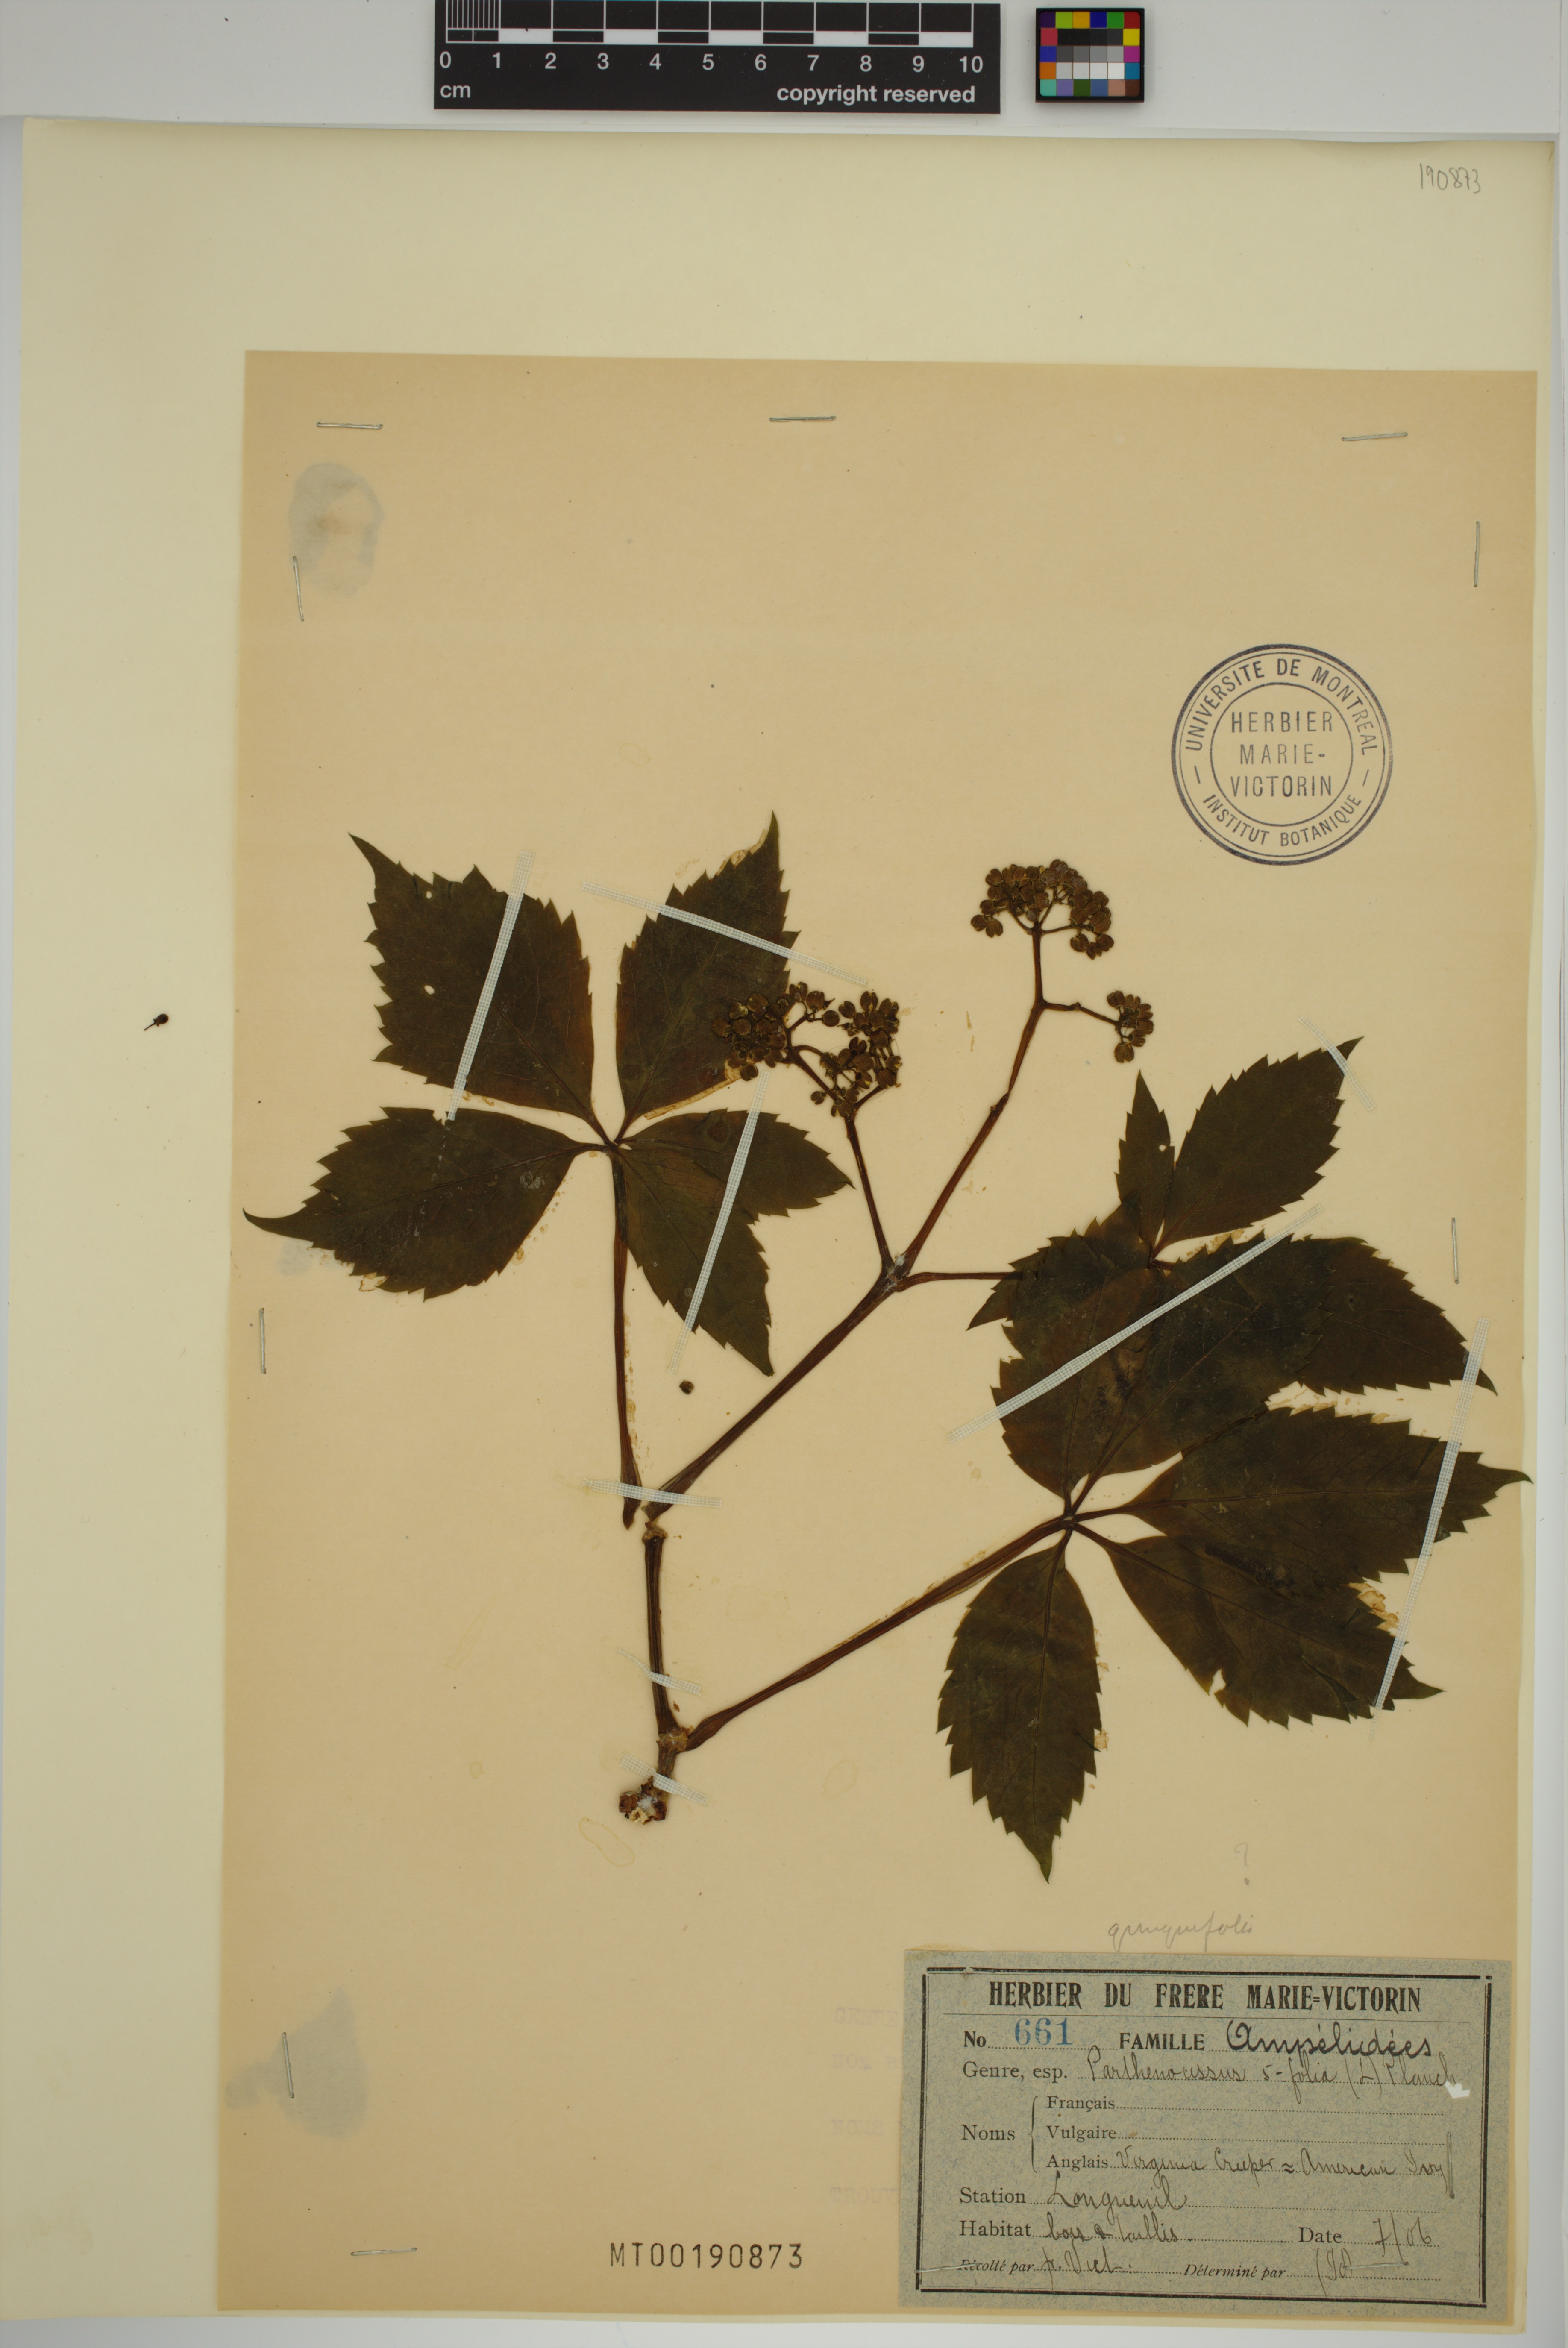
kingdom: Plantae
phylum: Tracheophyta
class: Magnoliopsida
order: Vitales
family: Vitaceae
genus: Parthenocissus
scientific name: Parthenocissus quinquefolia
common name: Virginia-creeper
